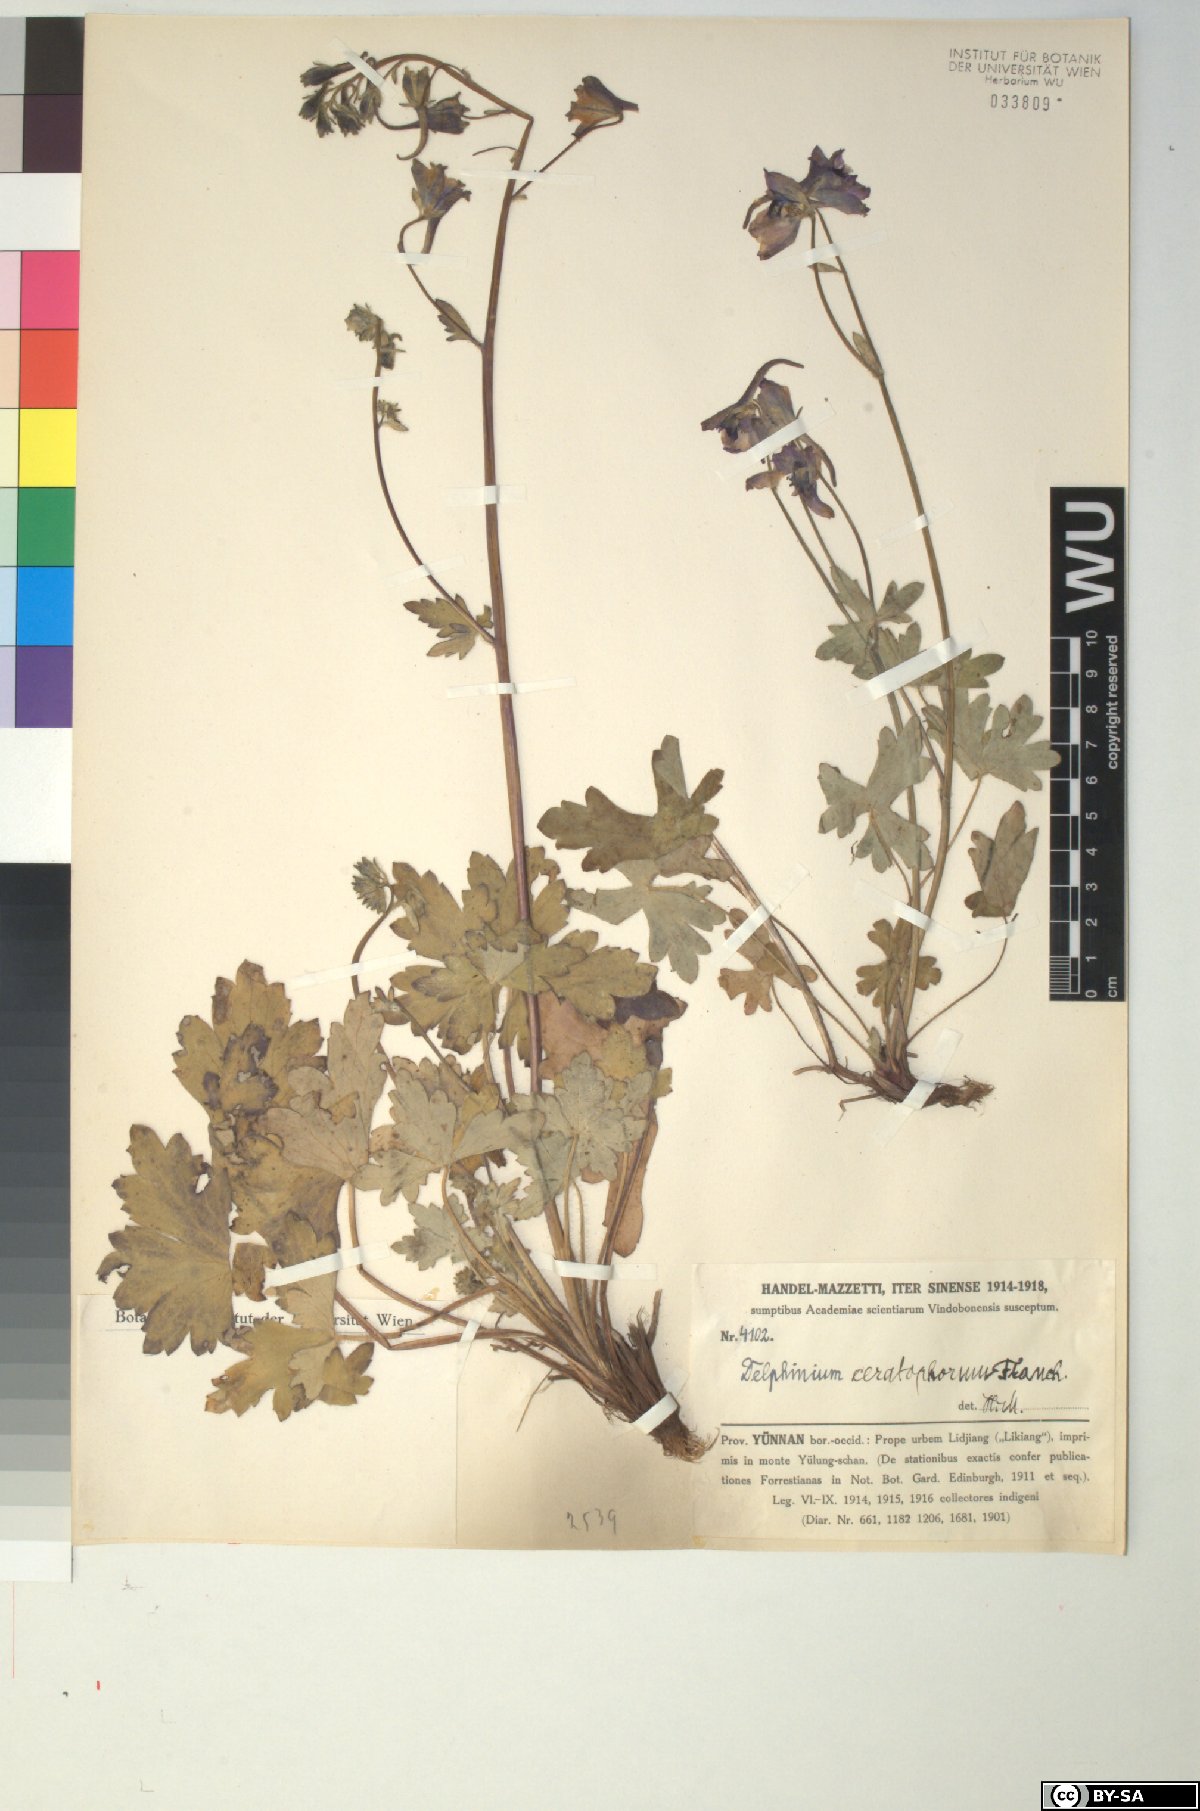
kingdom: Plantae
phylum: Tracheophyta
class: Magnoliopsida
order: Ranunculales
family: Ranunculaceae
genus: Delphinium
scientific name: Delphinium ceratophorum
